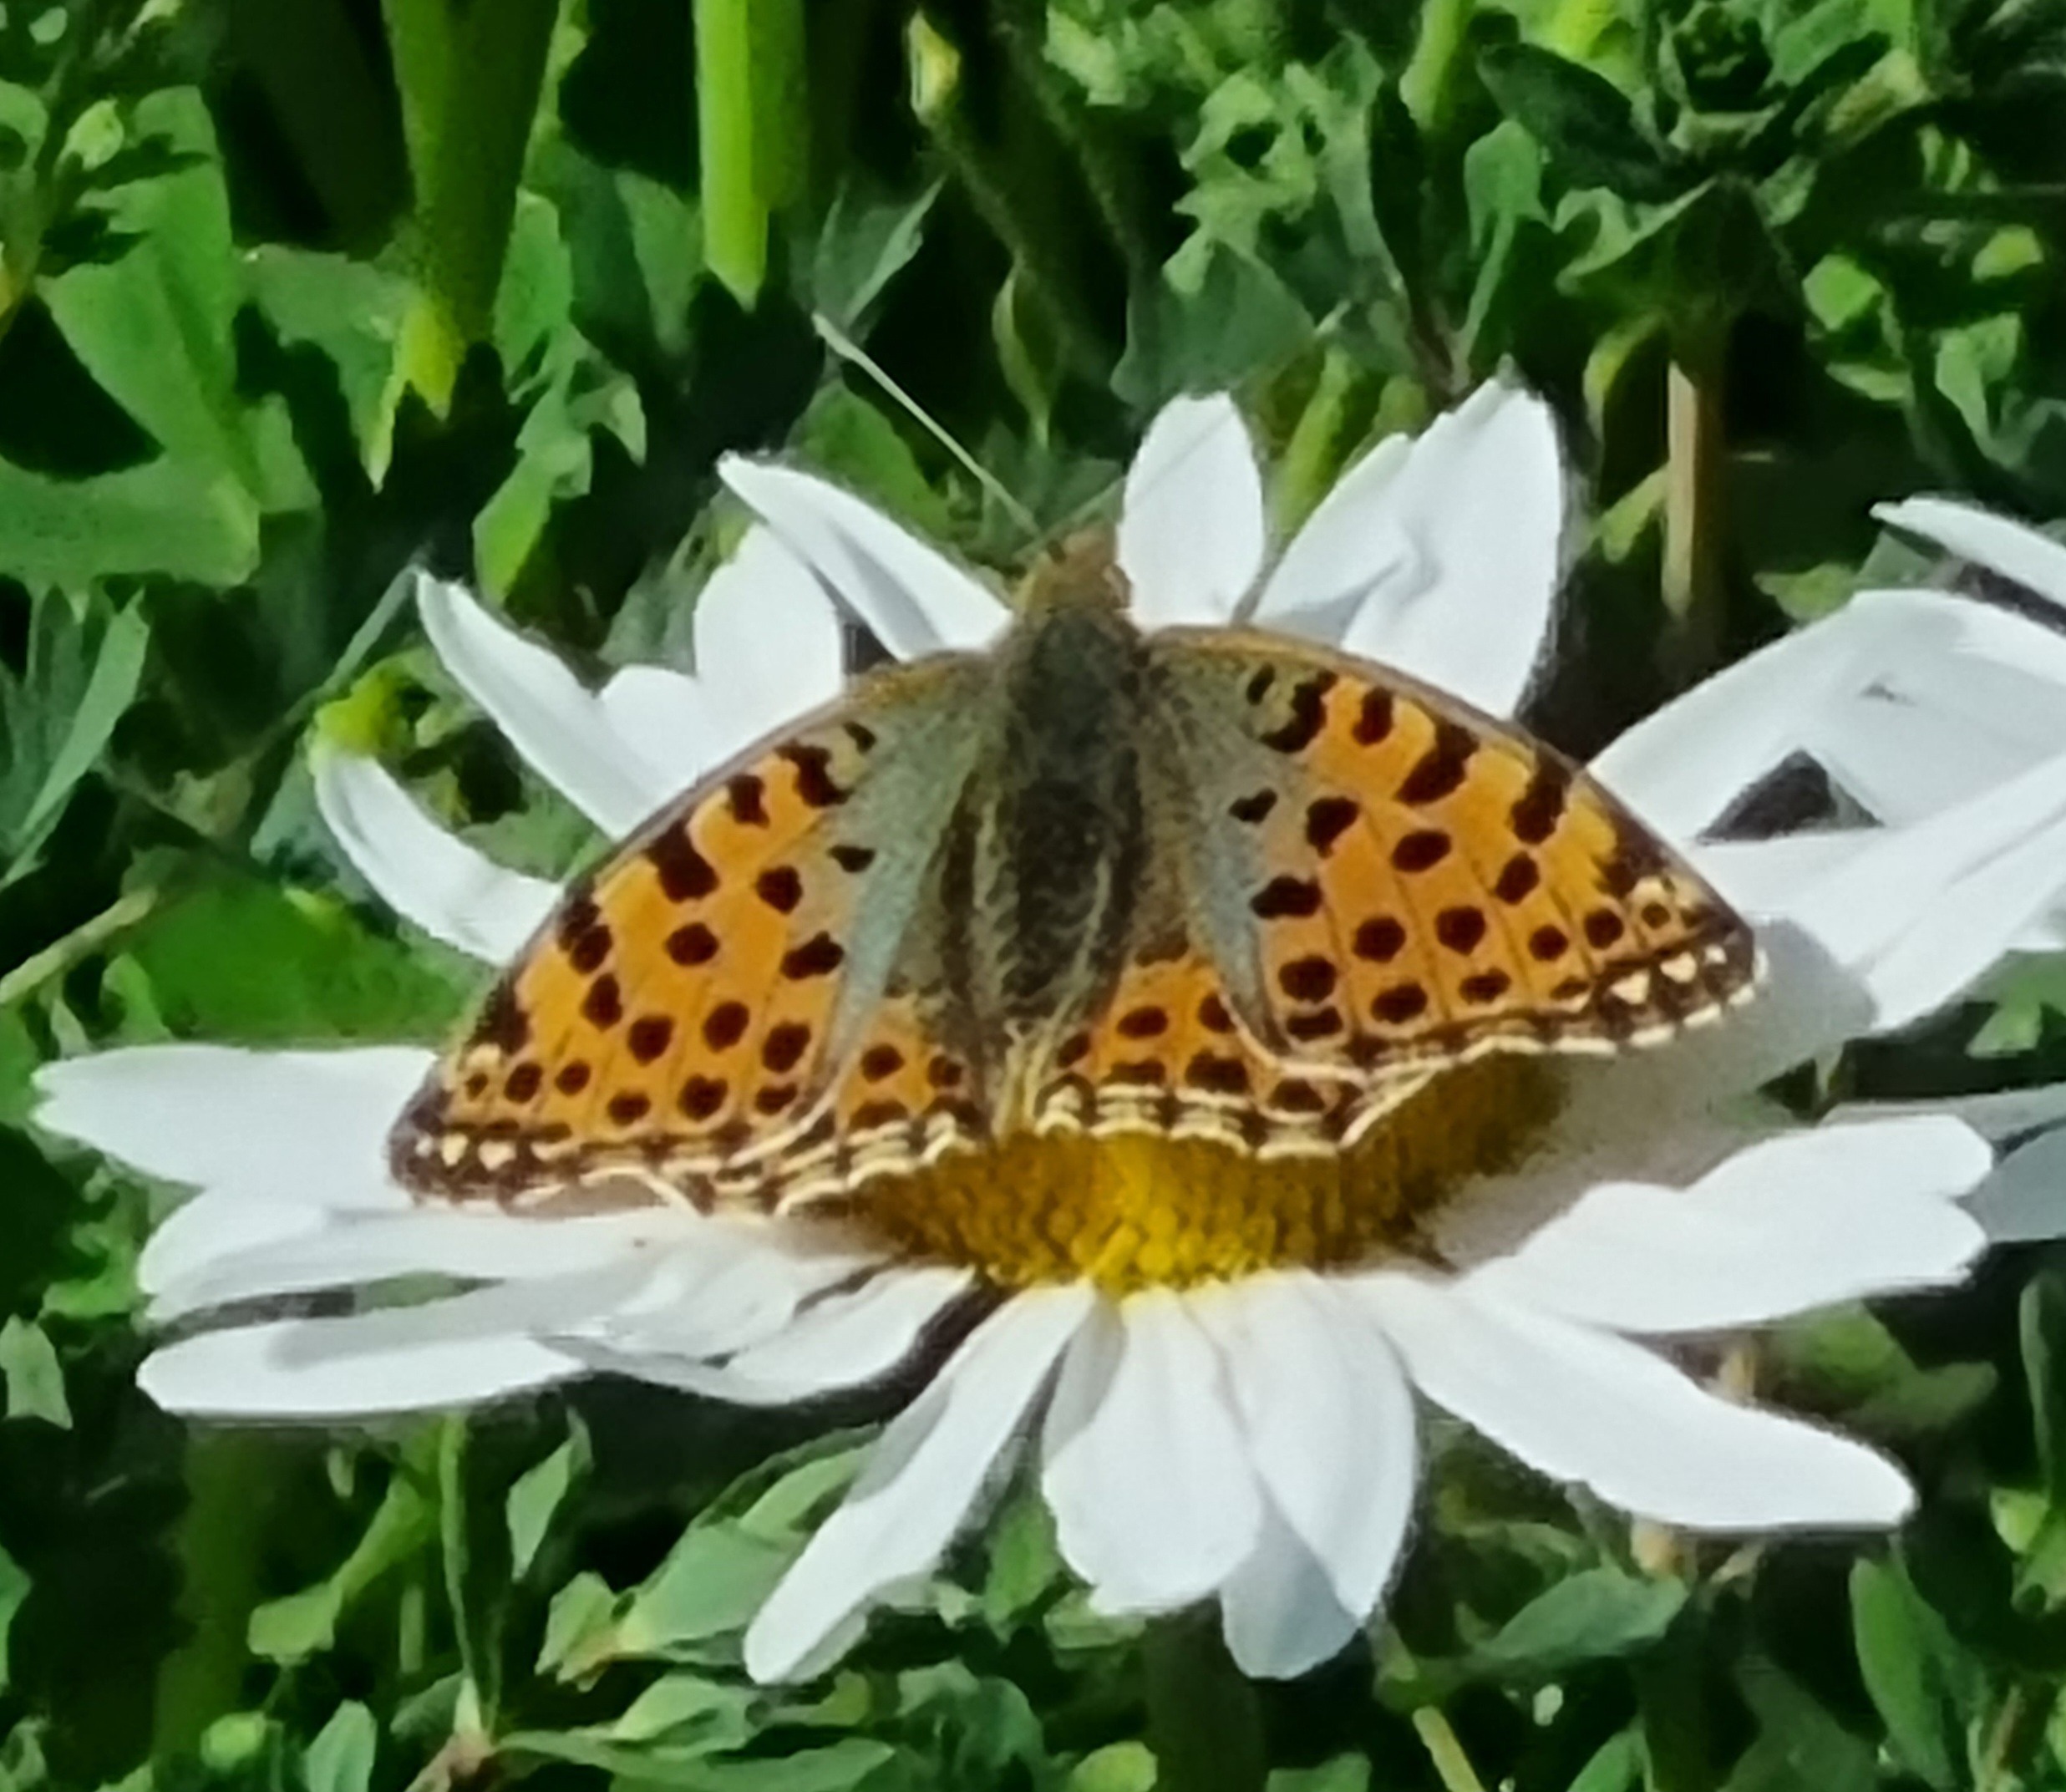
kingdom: Animalia
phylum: Arthropoda
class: Insecta
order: Lepidoptera
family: Nymphalidae
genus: Issoria
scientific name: Issoria lathonia
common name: Storplettet perlemorsommerfugl
